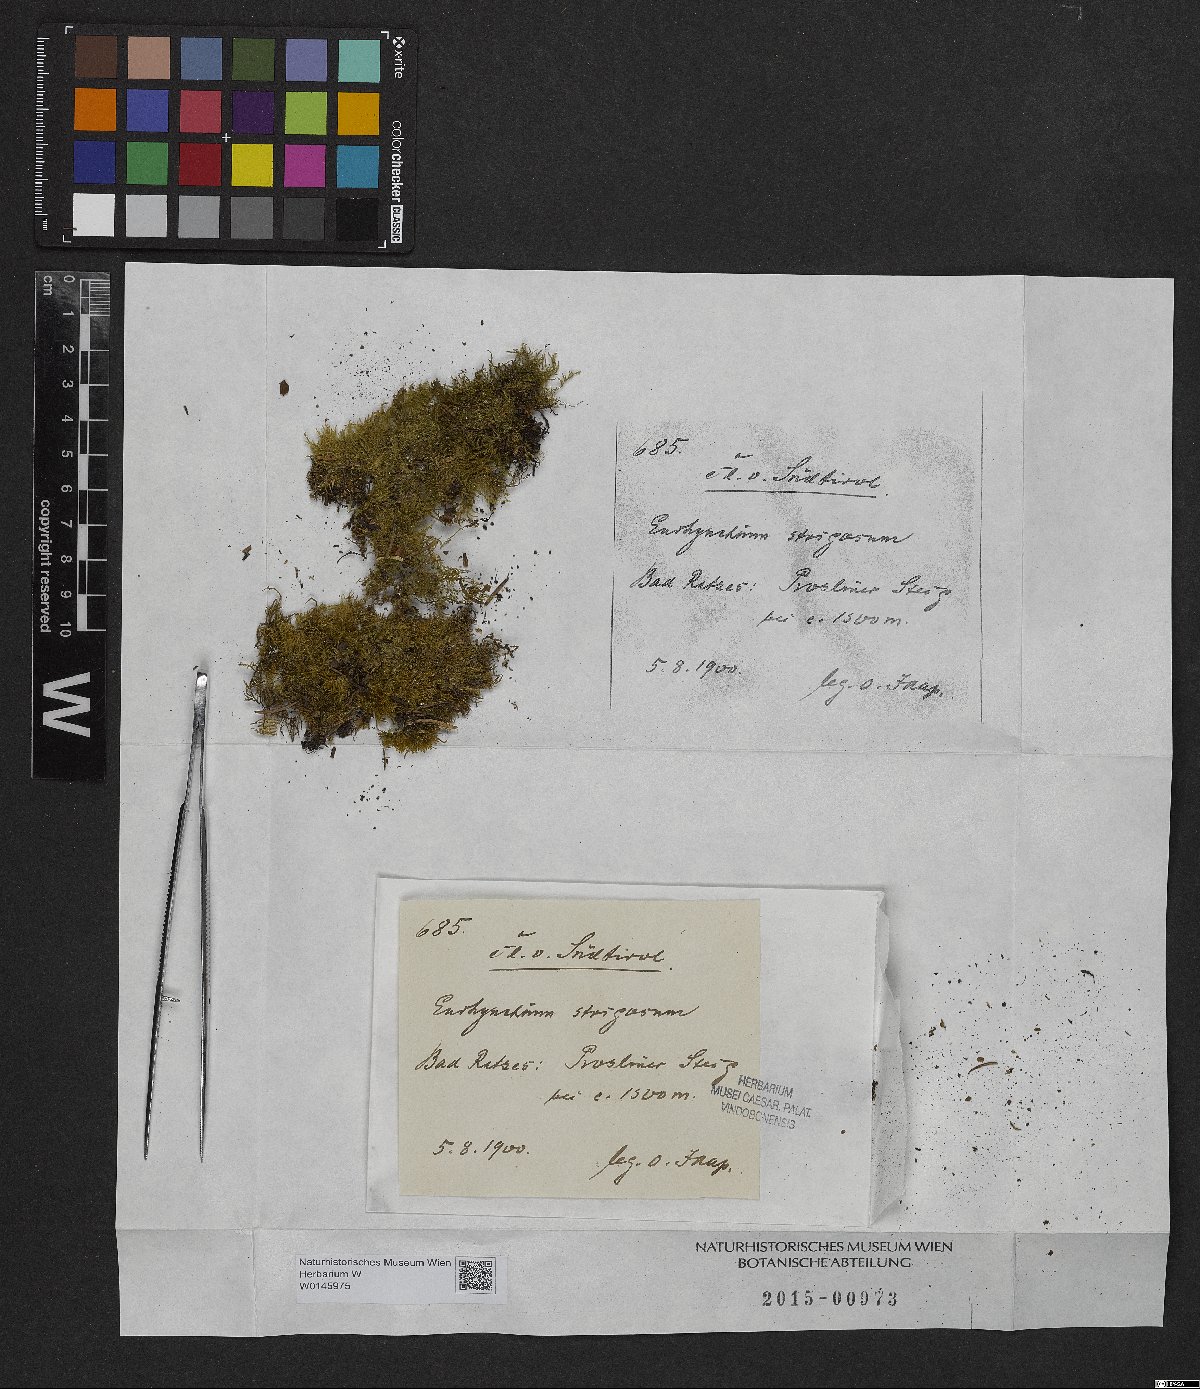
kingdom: Plantae
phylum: Bryophyta
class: Bryopsida
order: Hypnales
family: Brachytheciaceae
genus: Eurhynchiastrum
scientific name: Eurhynchiastrum pulchellum
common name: Elegant beaked moss
